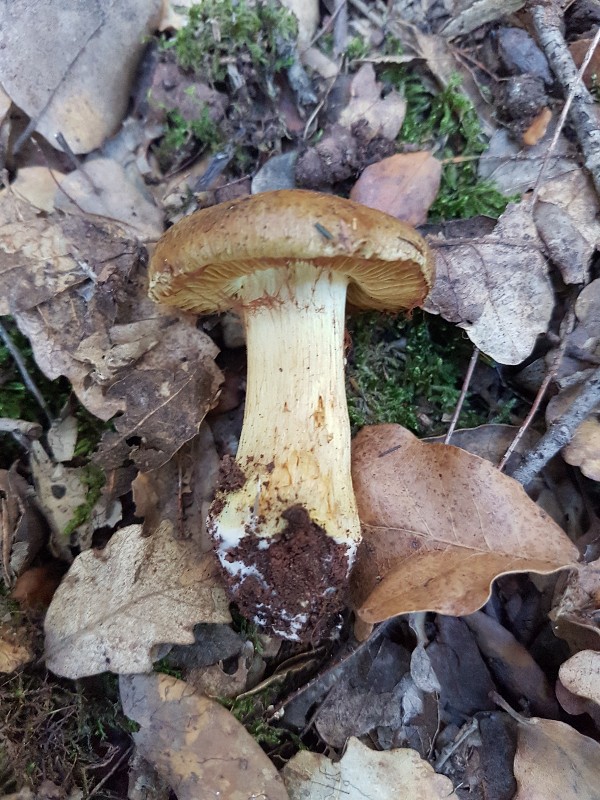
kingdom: Fungi
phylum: Basidiomycota
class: Agaricomycetes
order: Agaricales
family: Cortinariaceae
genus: Calonarius
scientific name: Calonarius xanthochlorus
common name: gulgrøn slørhat
